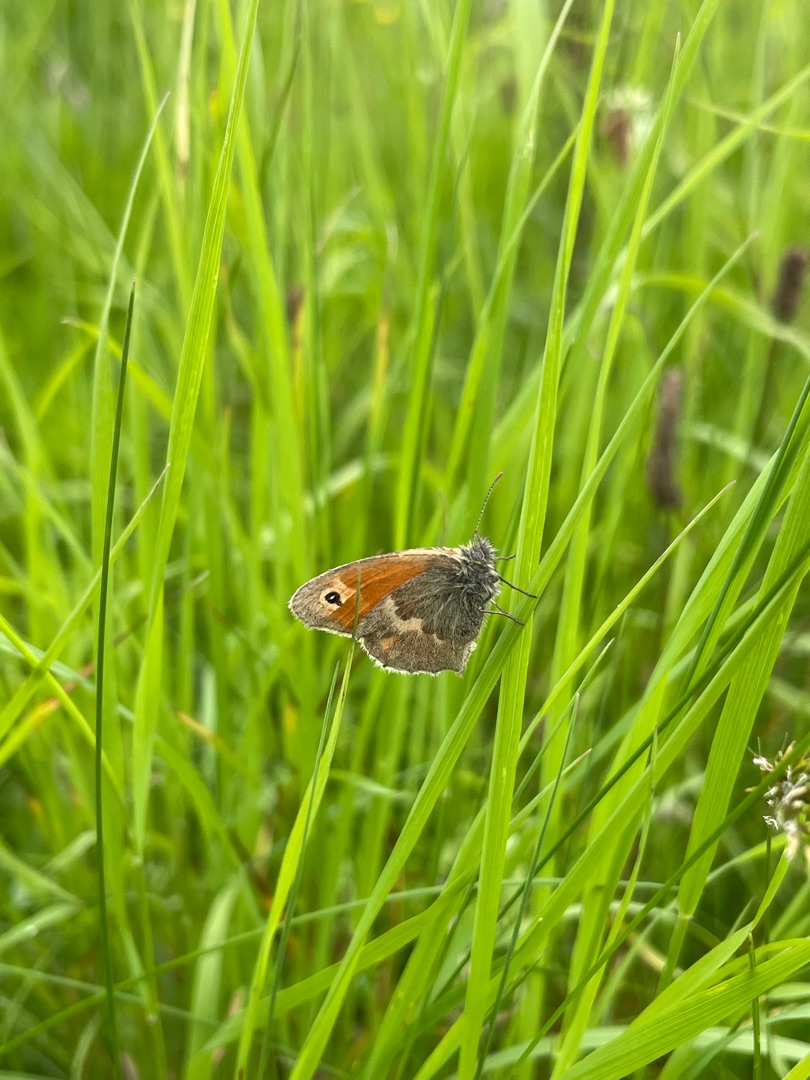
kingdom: Animalia
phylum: Arthropoda
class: Insecta
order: Lepidoptera
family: Nymphalidae
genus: Coenonympha
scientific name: Coenonympha pamphilus
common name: Okkergul randøje
